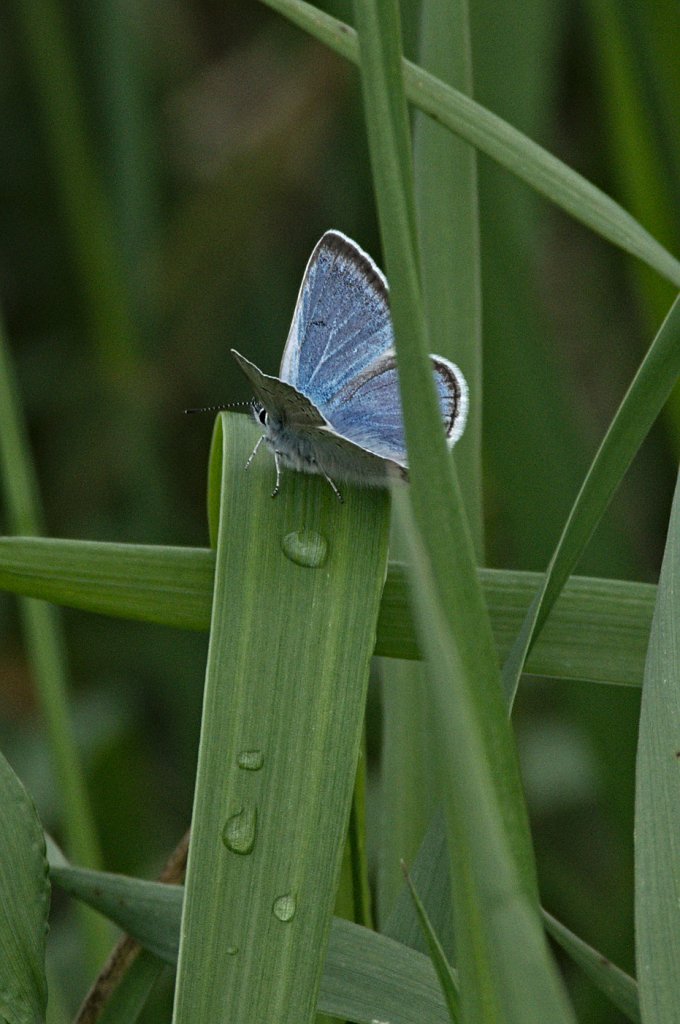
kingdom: Animalia
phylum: Arthropoda
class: Insecta
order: Lepidoptera
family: Lycaenidae
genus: Plebejus
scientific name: Plebejus saepiolus
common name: Greenish Blue
